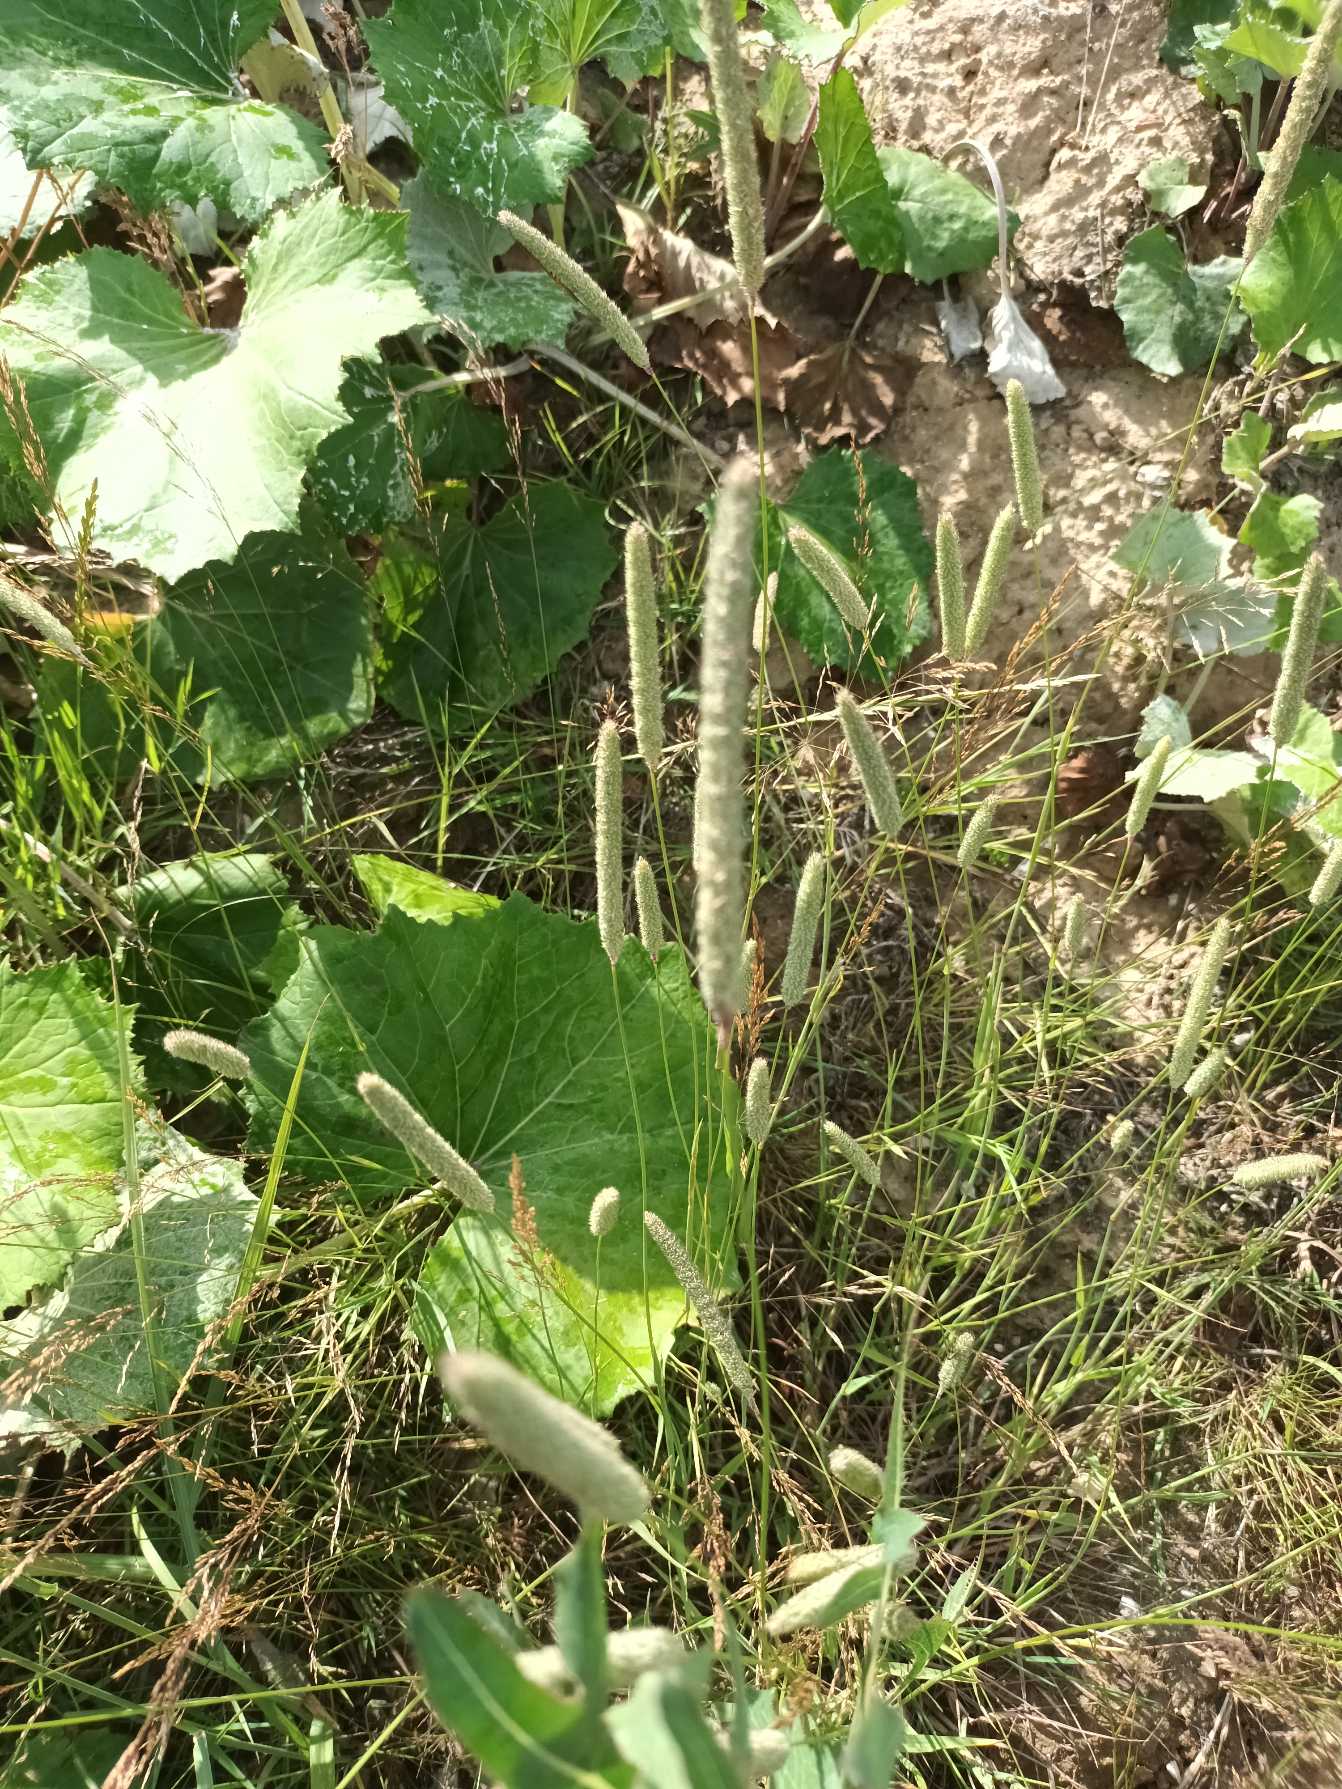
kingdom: Plantae
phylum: Tracheophyta
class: Liliopsida
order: Poales
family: Poaceae
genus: Phleum
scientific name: Phleum pratense
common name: Eng-rottehale
